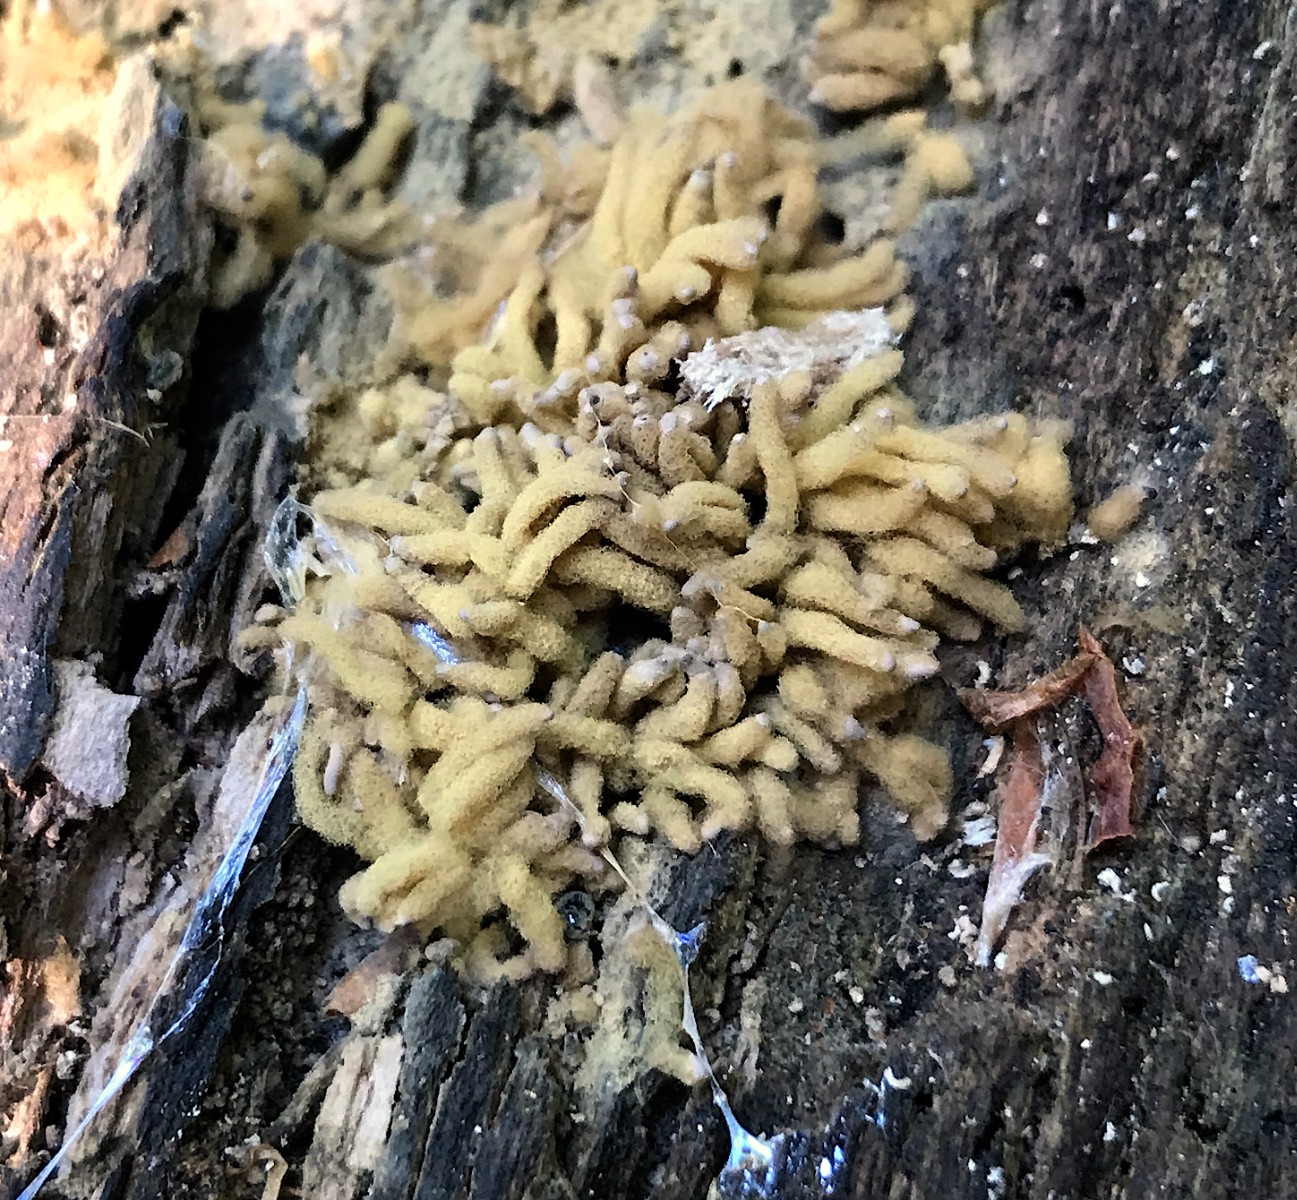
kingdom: Protozoa
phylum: Mycetozoa
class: Myxomycetes
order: Trichiales
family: Arcyriaceae
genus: Arcyria
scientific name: Arcyria obvelata
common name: okkergul skålsvøb
